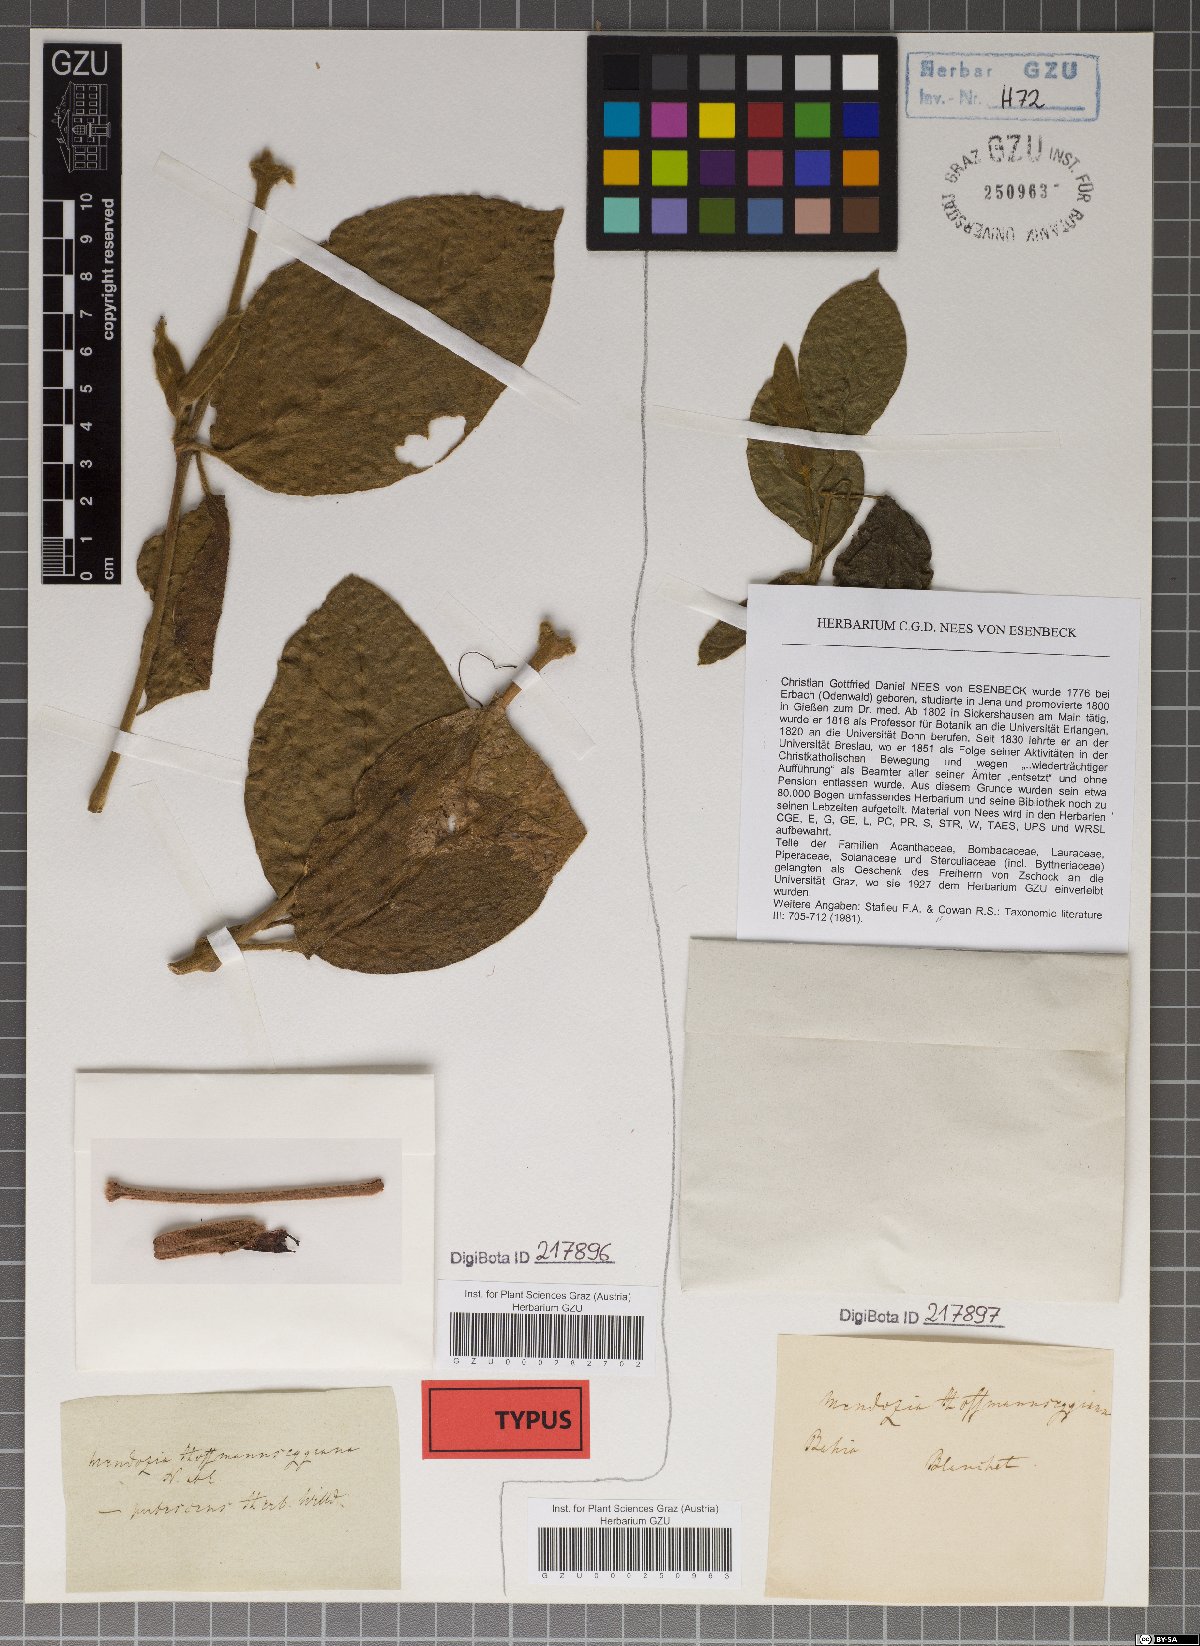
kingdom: Plantae
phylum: Tracheophyta
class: Magnoliopsida
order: Lamiales
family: Acanthaceae
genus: Mendoncia
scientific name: Mendoncia hoffmannseggiana
